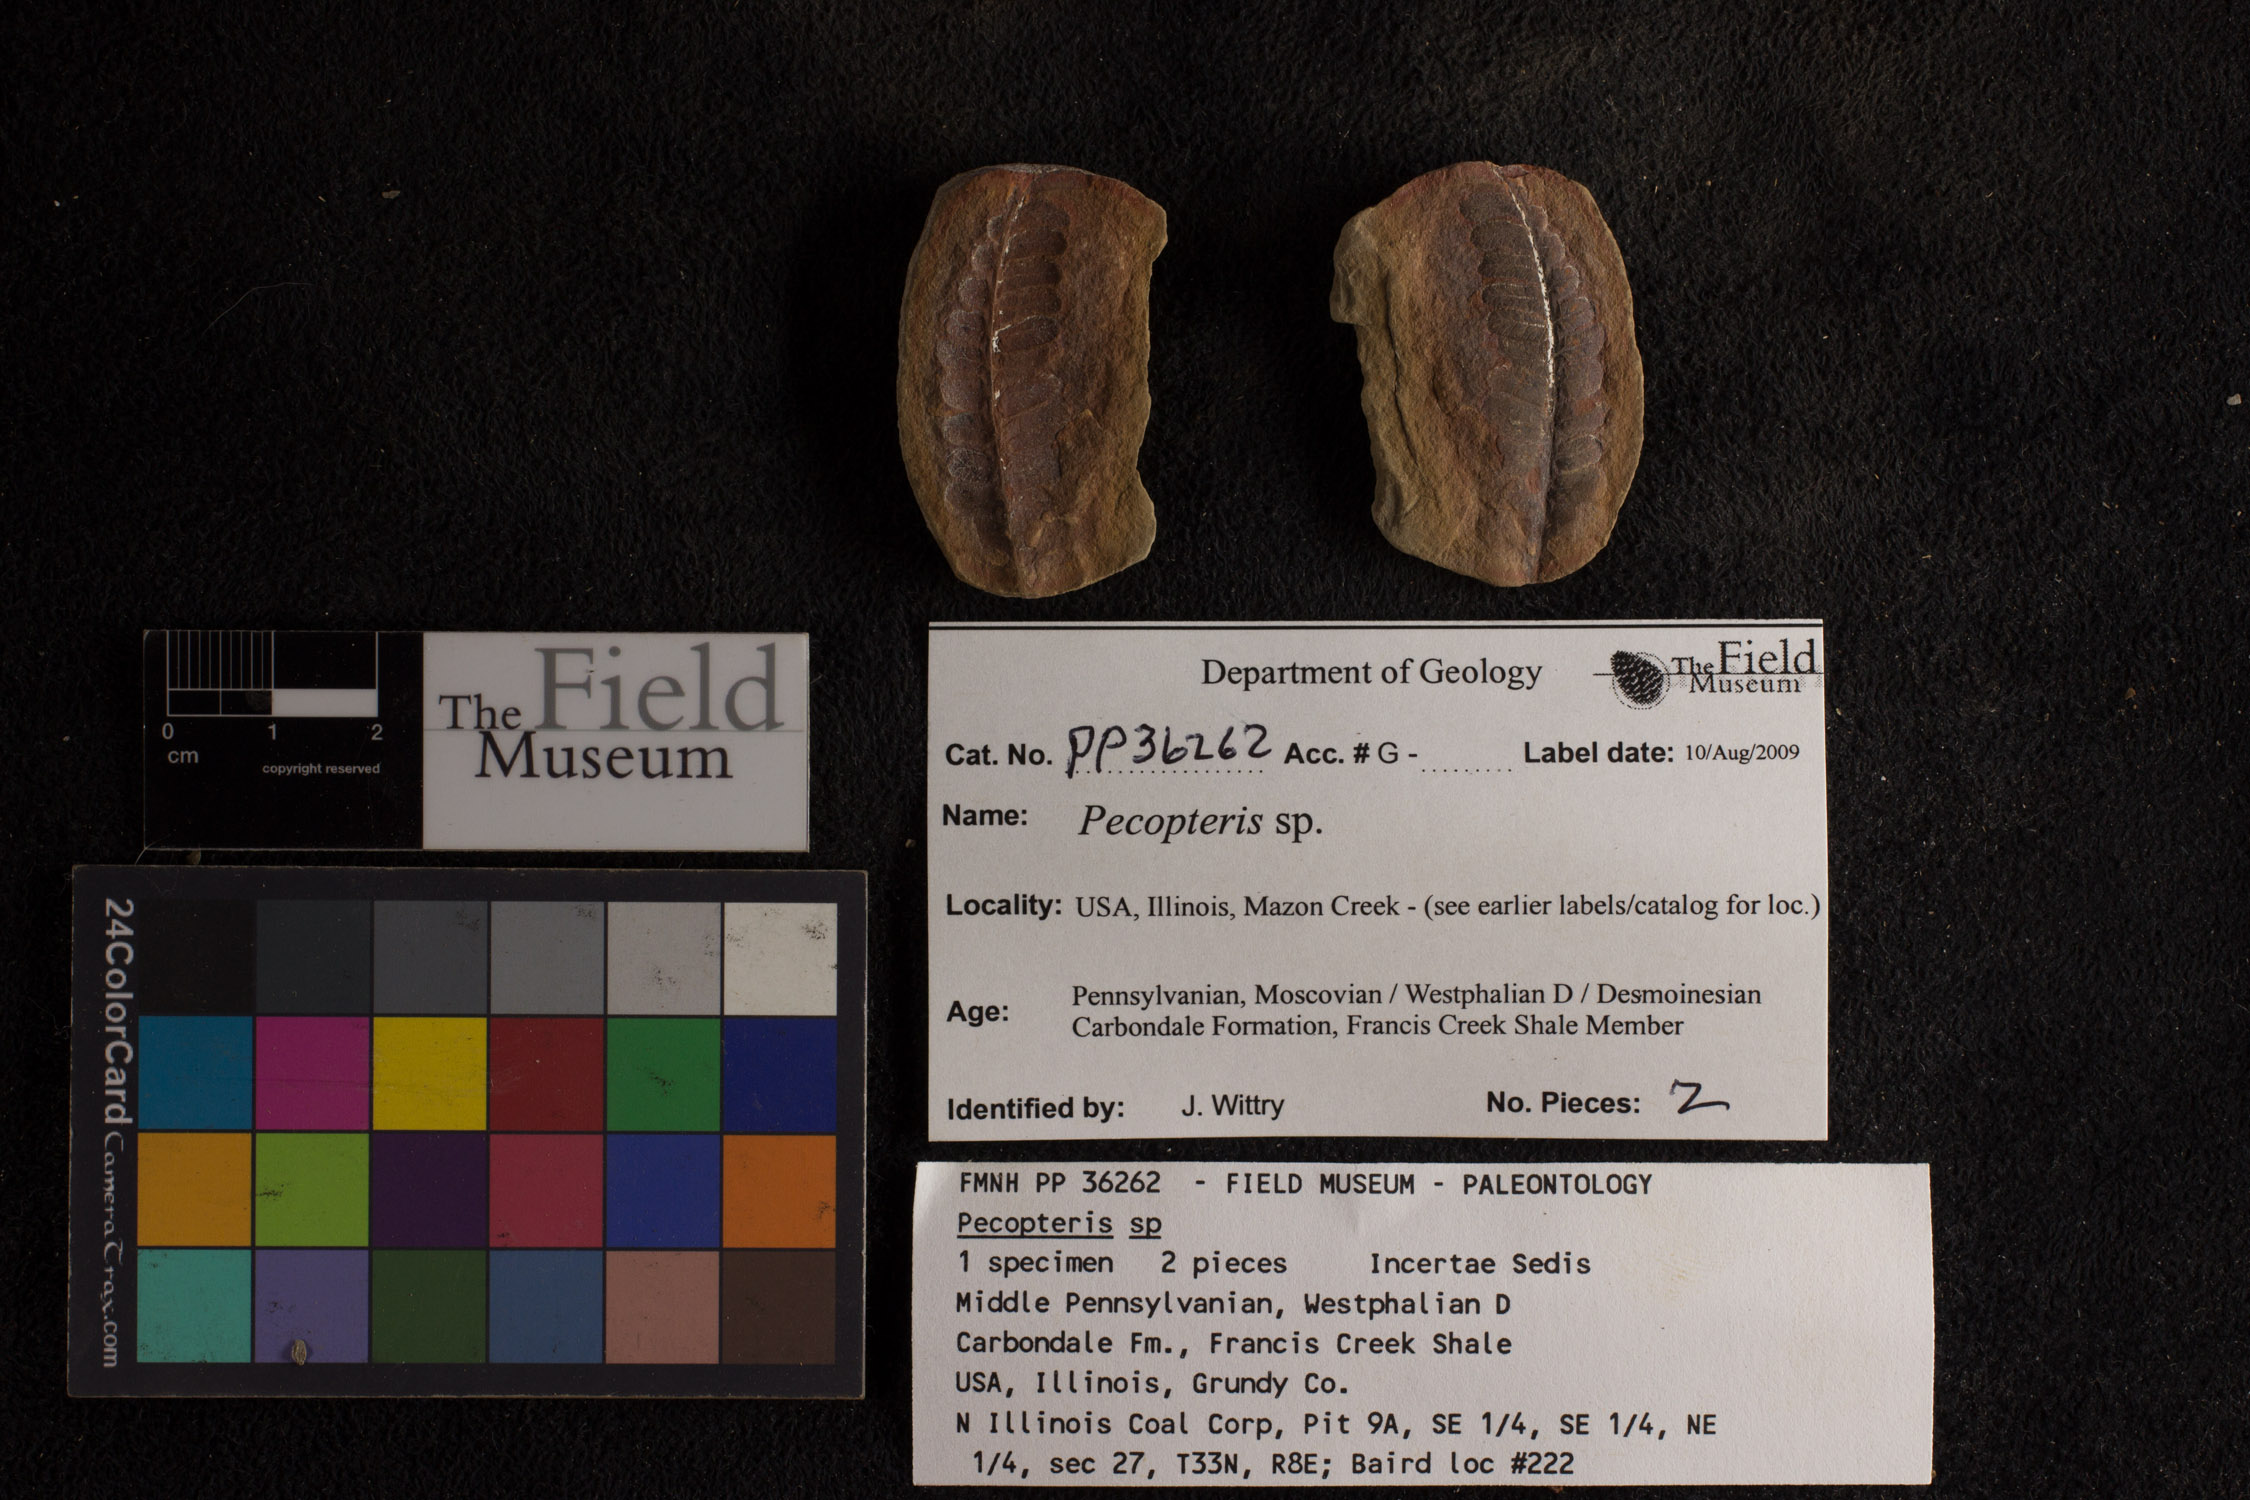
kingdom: Plantae
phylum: Tracheophyta
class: Polypodiopsida
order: Marattiales
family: Asterothecaceae
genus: Pecopteris
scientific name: Pecopteris
